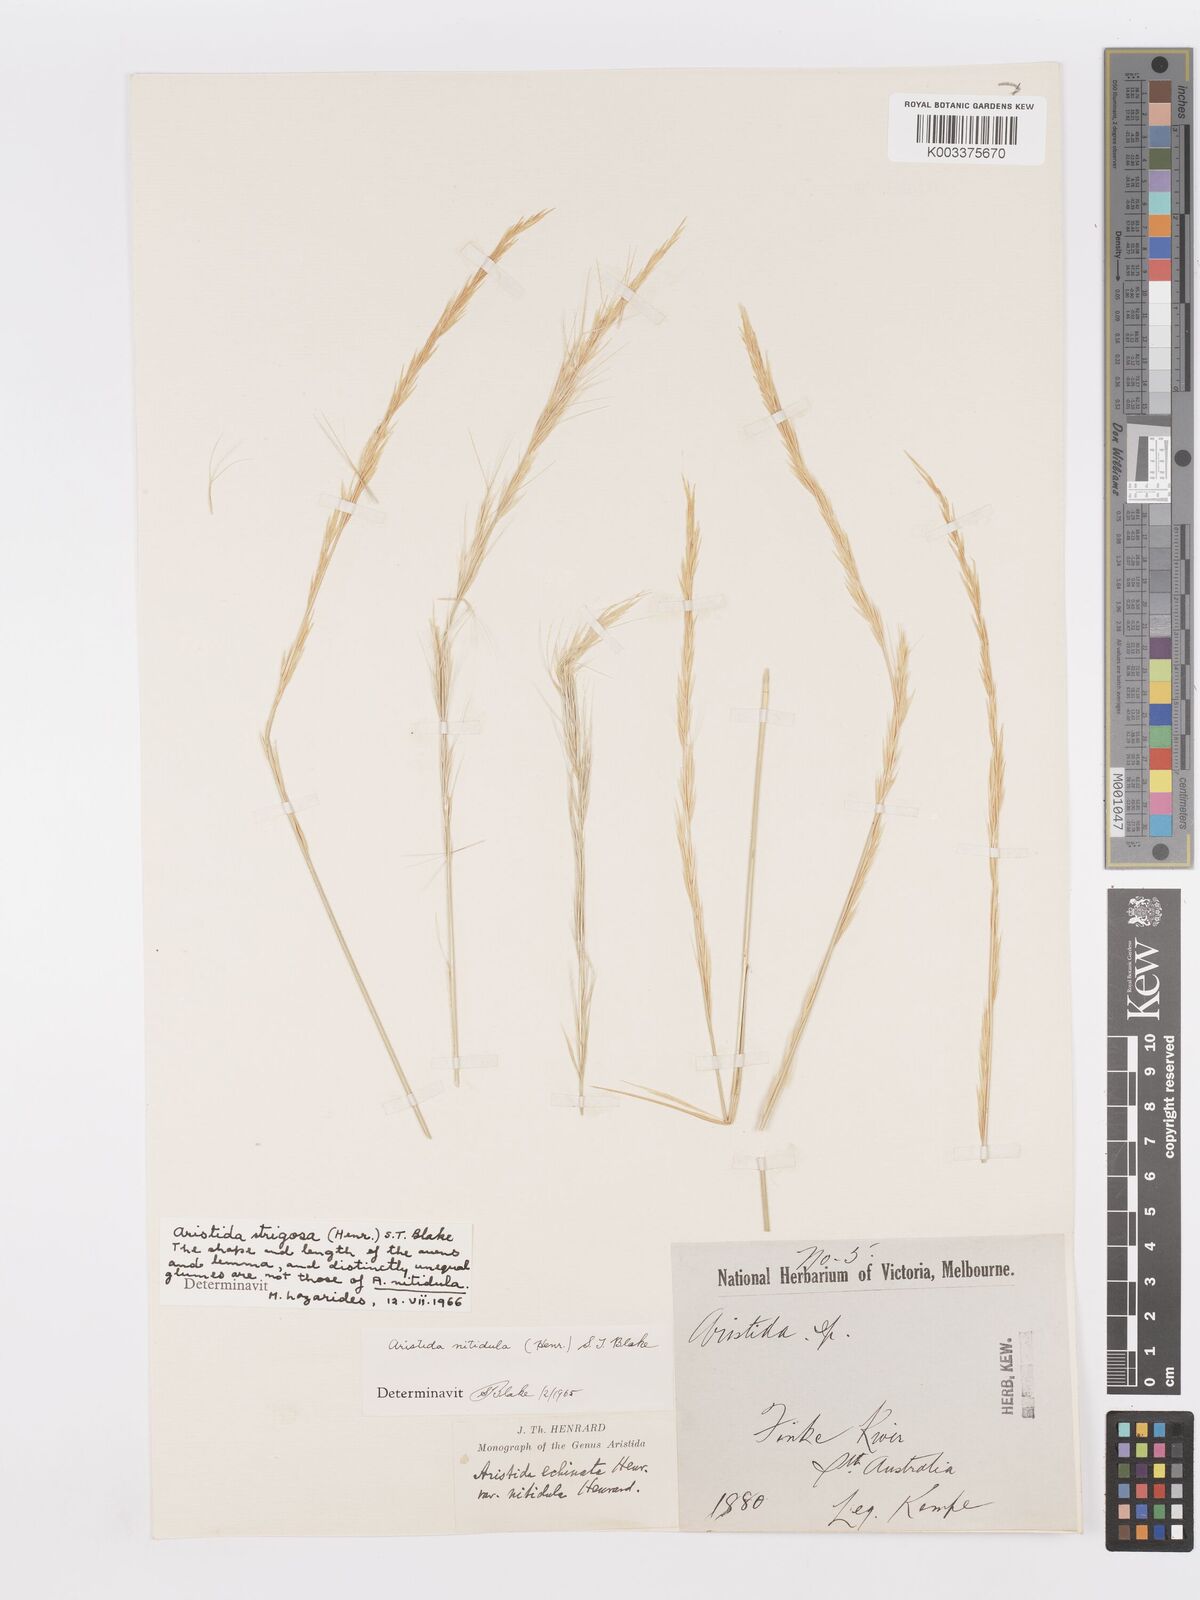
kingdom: Plantae
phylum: Tracheophyta
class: Liliopsida
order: Poales
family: Poaceae
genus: Aristida
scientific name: Aristida nitidula
